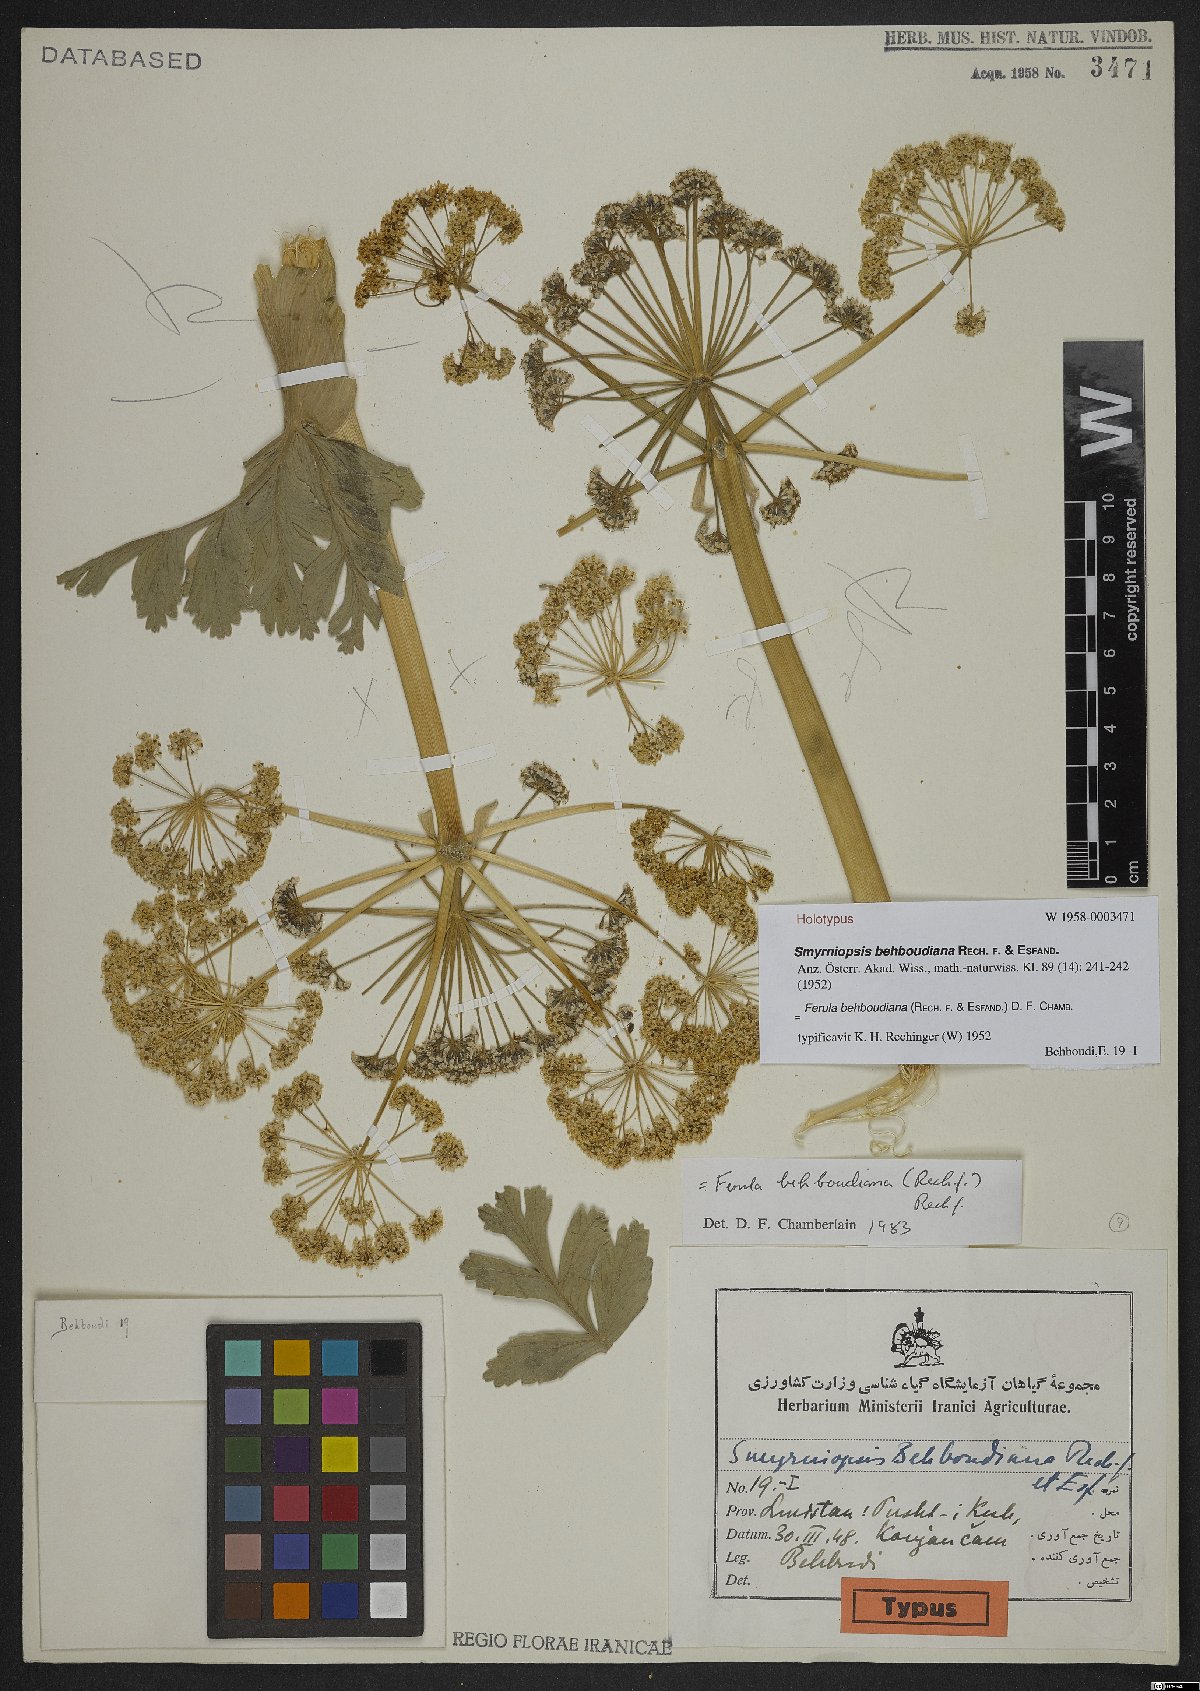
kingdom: Plantae
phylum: Tracheophyta
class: Magnoliopsida
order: Apiales
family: Apiaceae
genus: Ferula
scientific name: Ferula behboudiana
